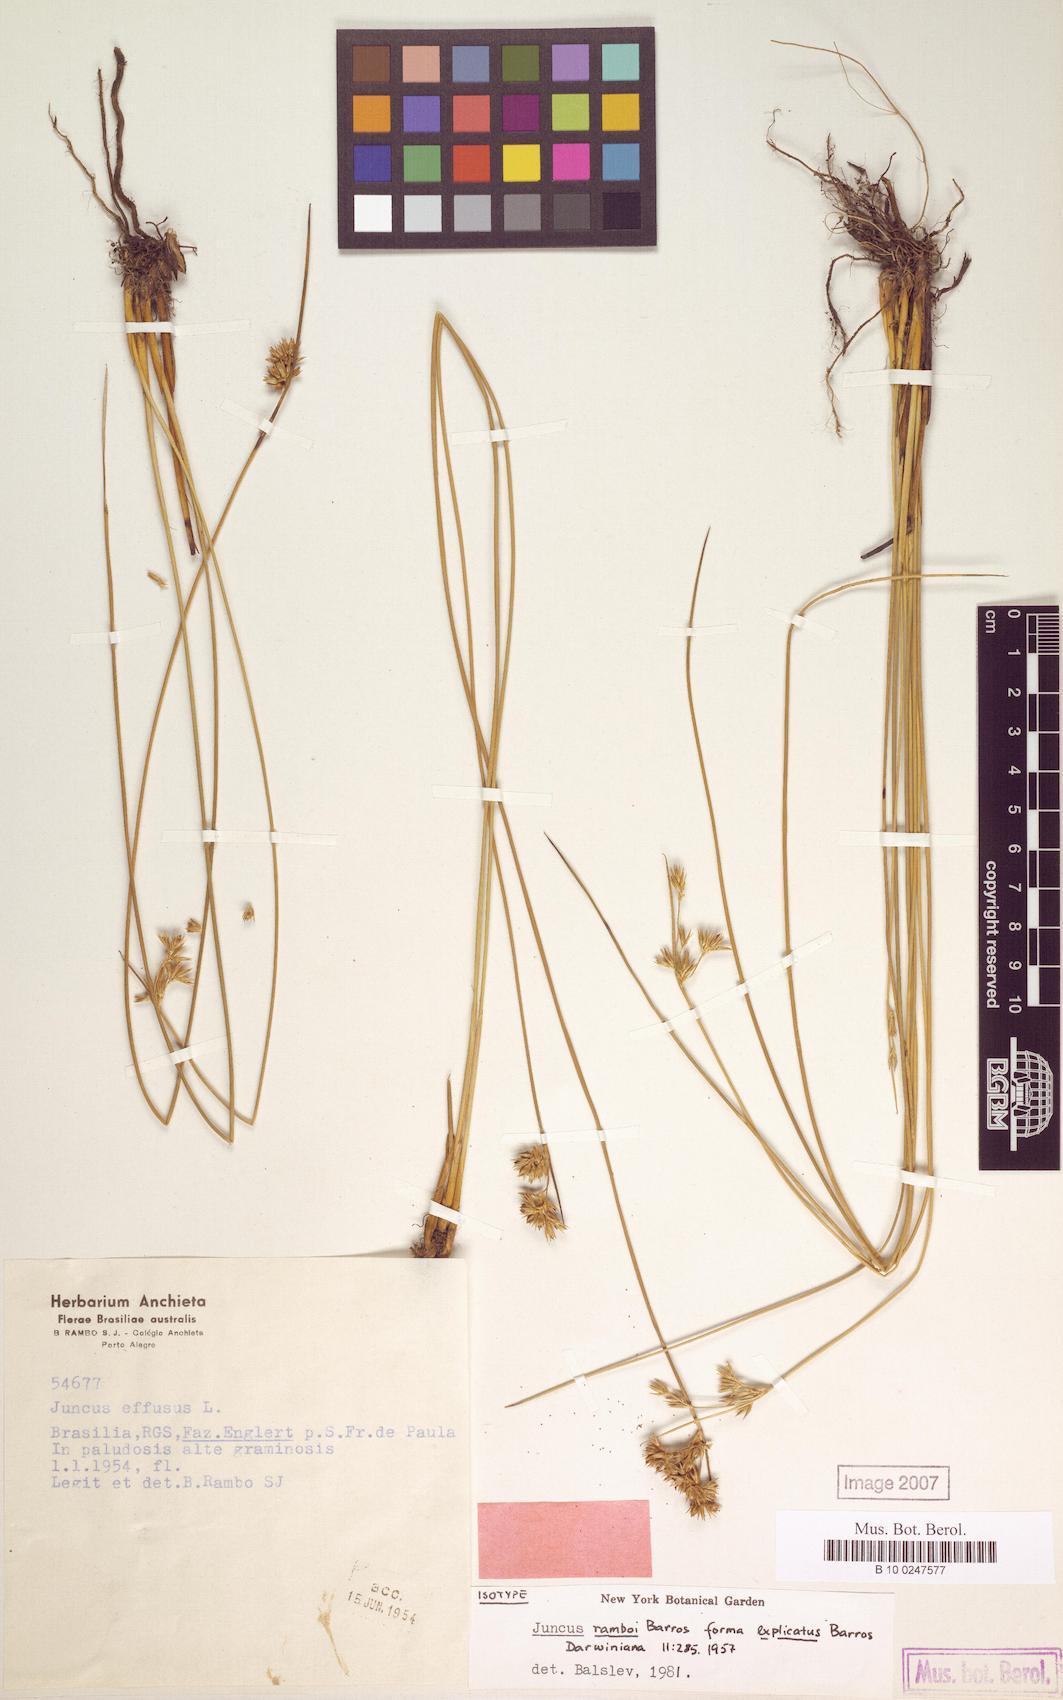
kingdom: Plantae
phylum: Tracheophyta
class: Liliopsida
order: Poales
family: Juncaceae
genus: Juncus
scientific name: Juncus ramboi
